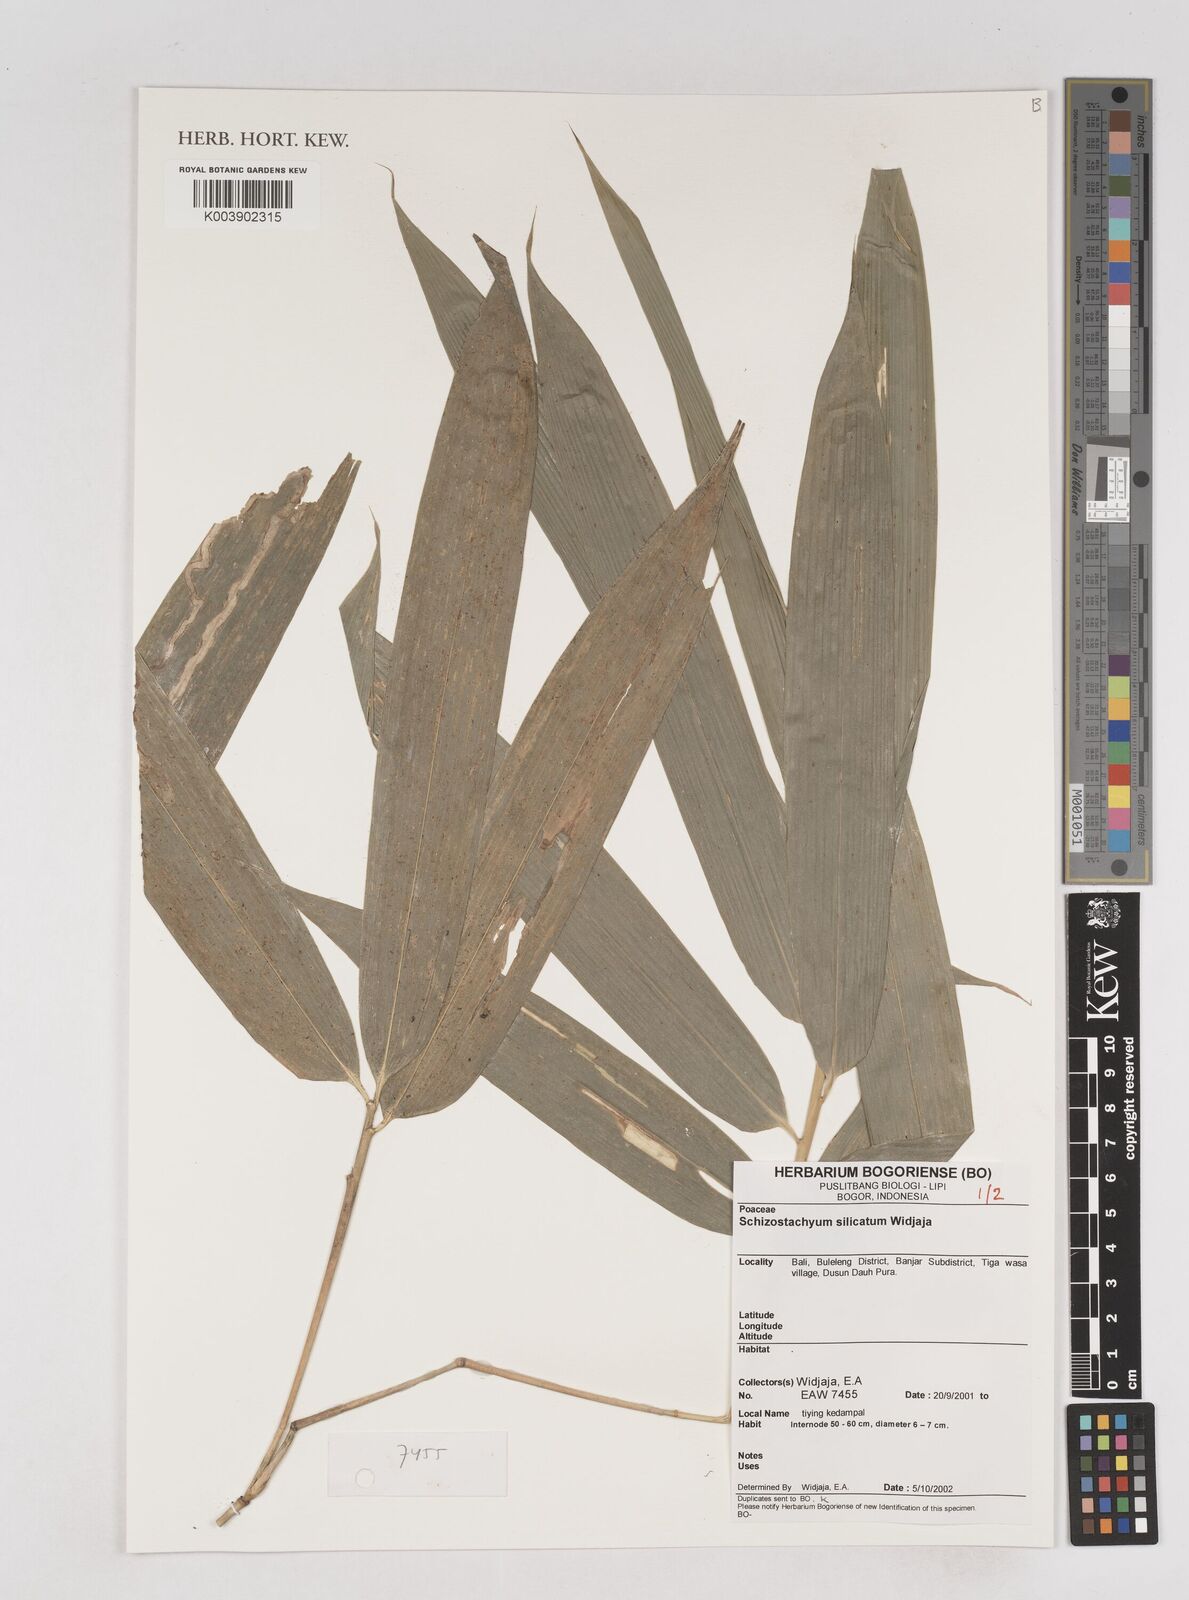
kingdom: Plantae
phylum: Tracheophyta
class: Liliopsida
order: Poales
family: Poaceae
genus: Schizostachyum
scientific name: Schizostachyum silicatum
